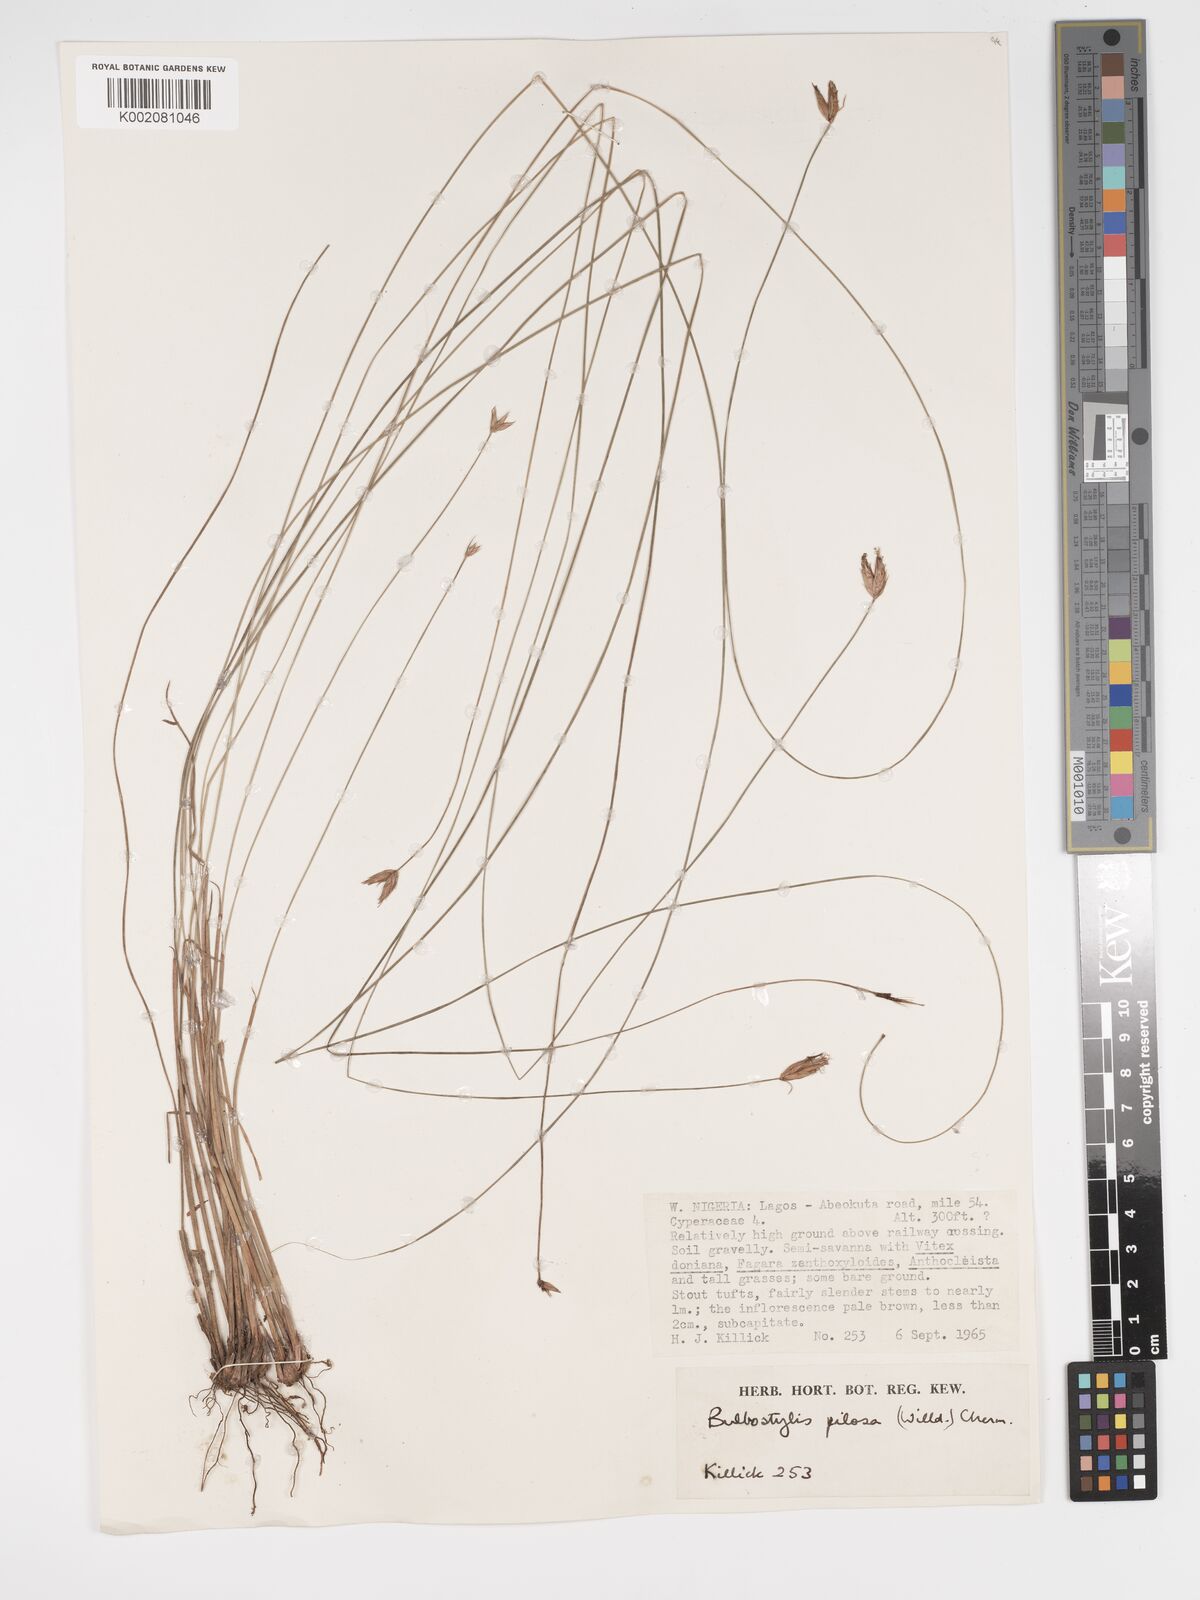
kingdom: Plantae
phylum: Tracheophyta
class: Liliopsida
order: Poales
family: Cyperaceae
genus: Bulbostylis
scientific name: Bulbostylis pilosa
